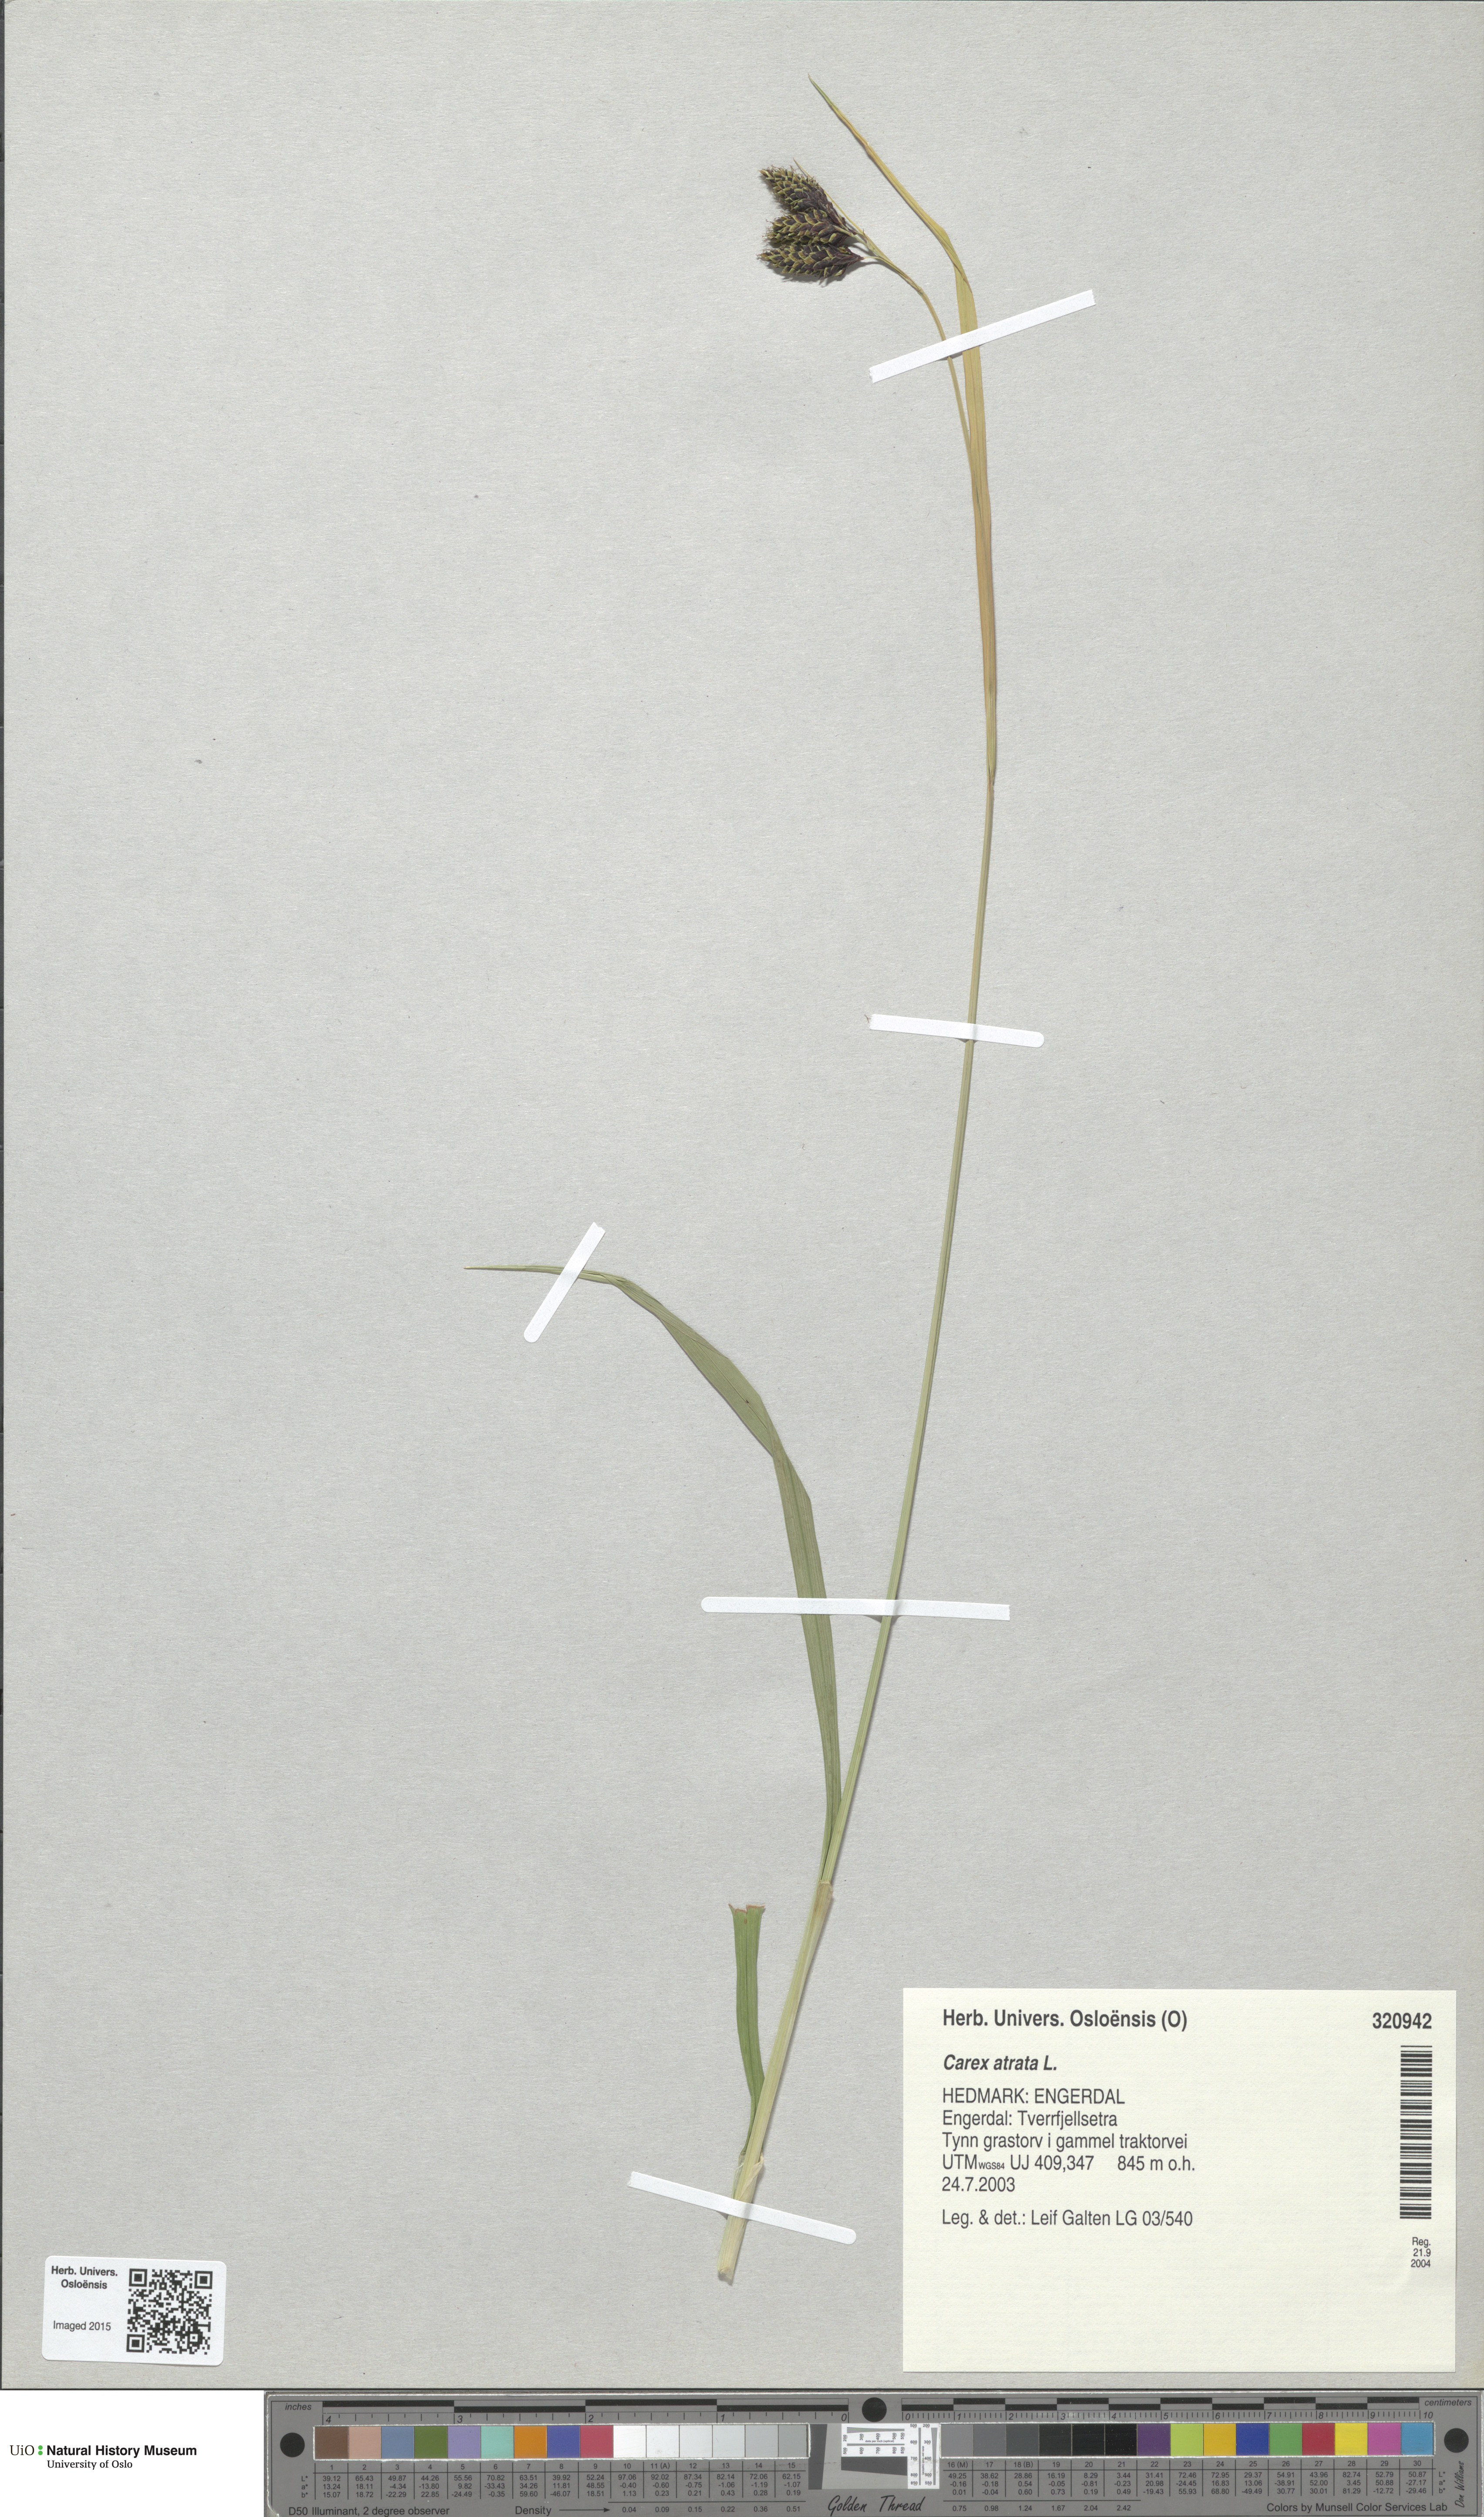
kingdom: Plantae
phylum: Tracheophyta
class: Liliopsida
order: Poales
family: Cyperaceae
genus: Carex
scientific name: Carex atrata
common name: Black alpine sedge
